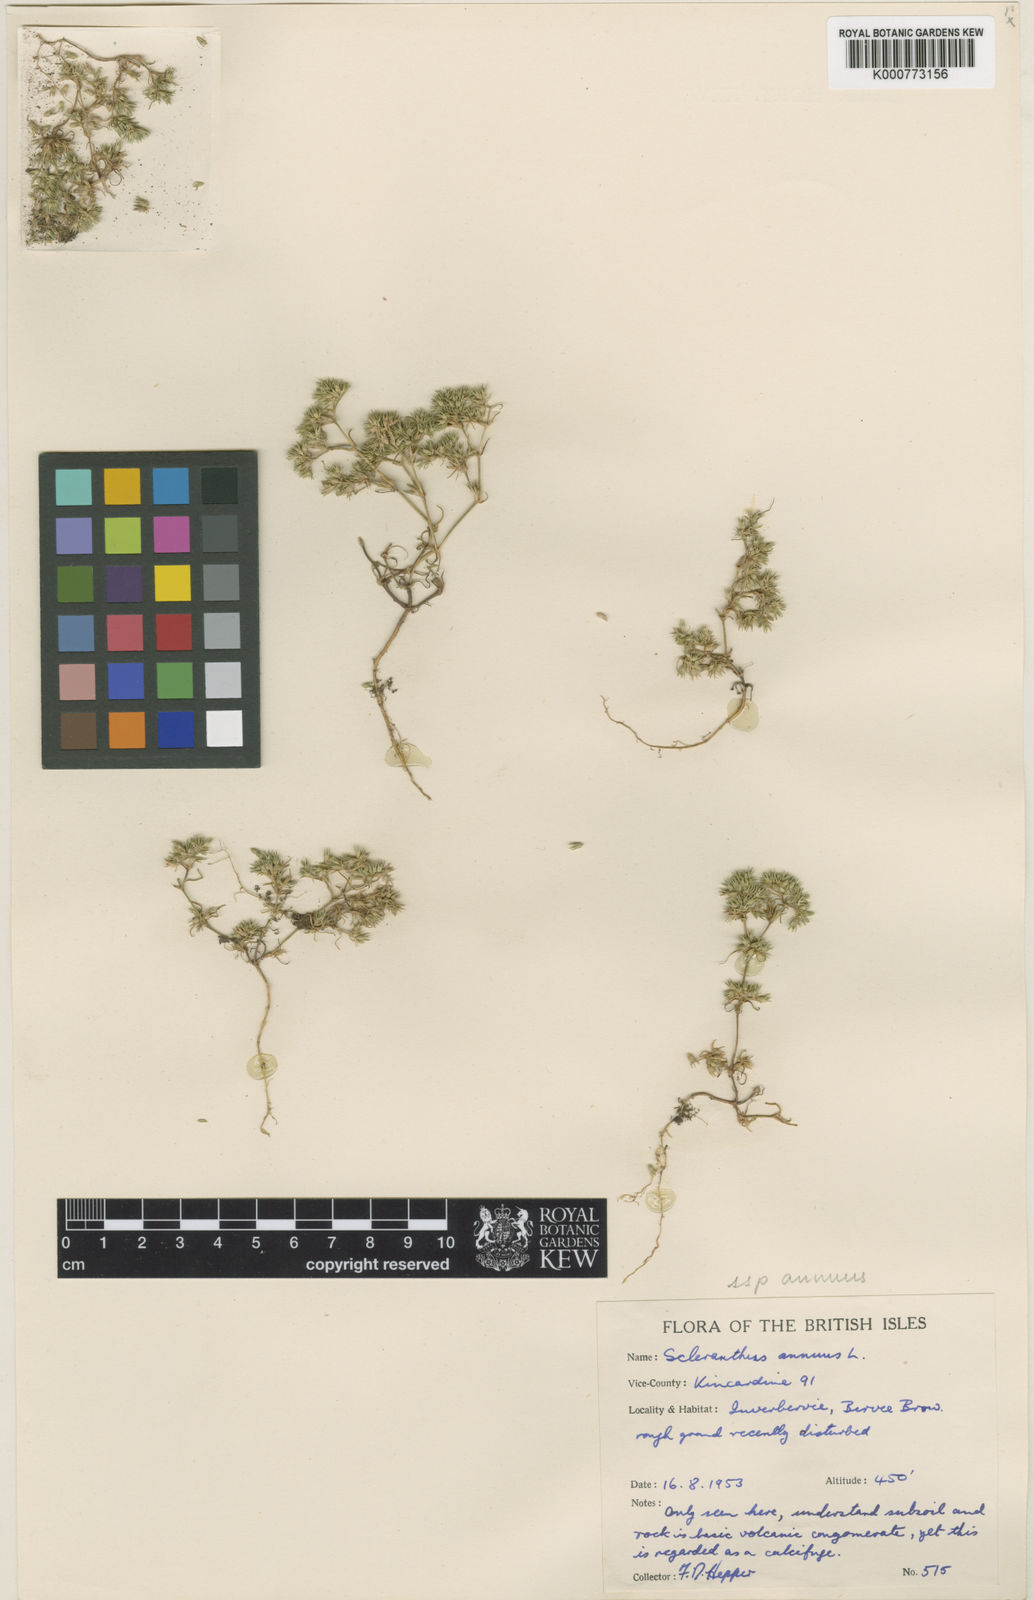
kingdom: Plantae
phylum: Tracheophyta
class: Magnoliopsida
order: Caryophyllales
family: Caryophyllaceae
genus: Scleranthus
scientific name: Scleranthus annuus
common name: Annual knawel
